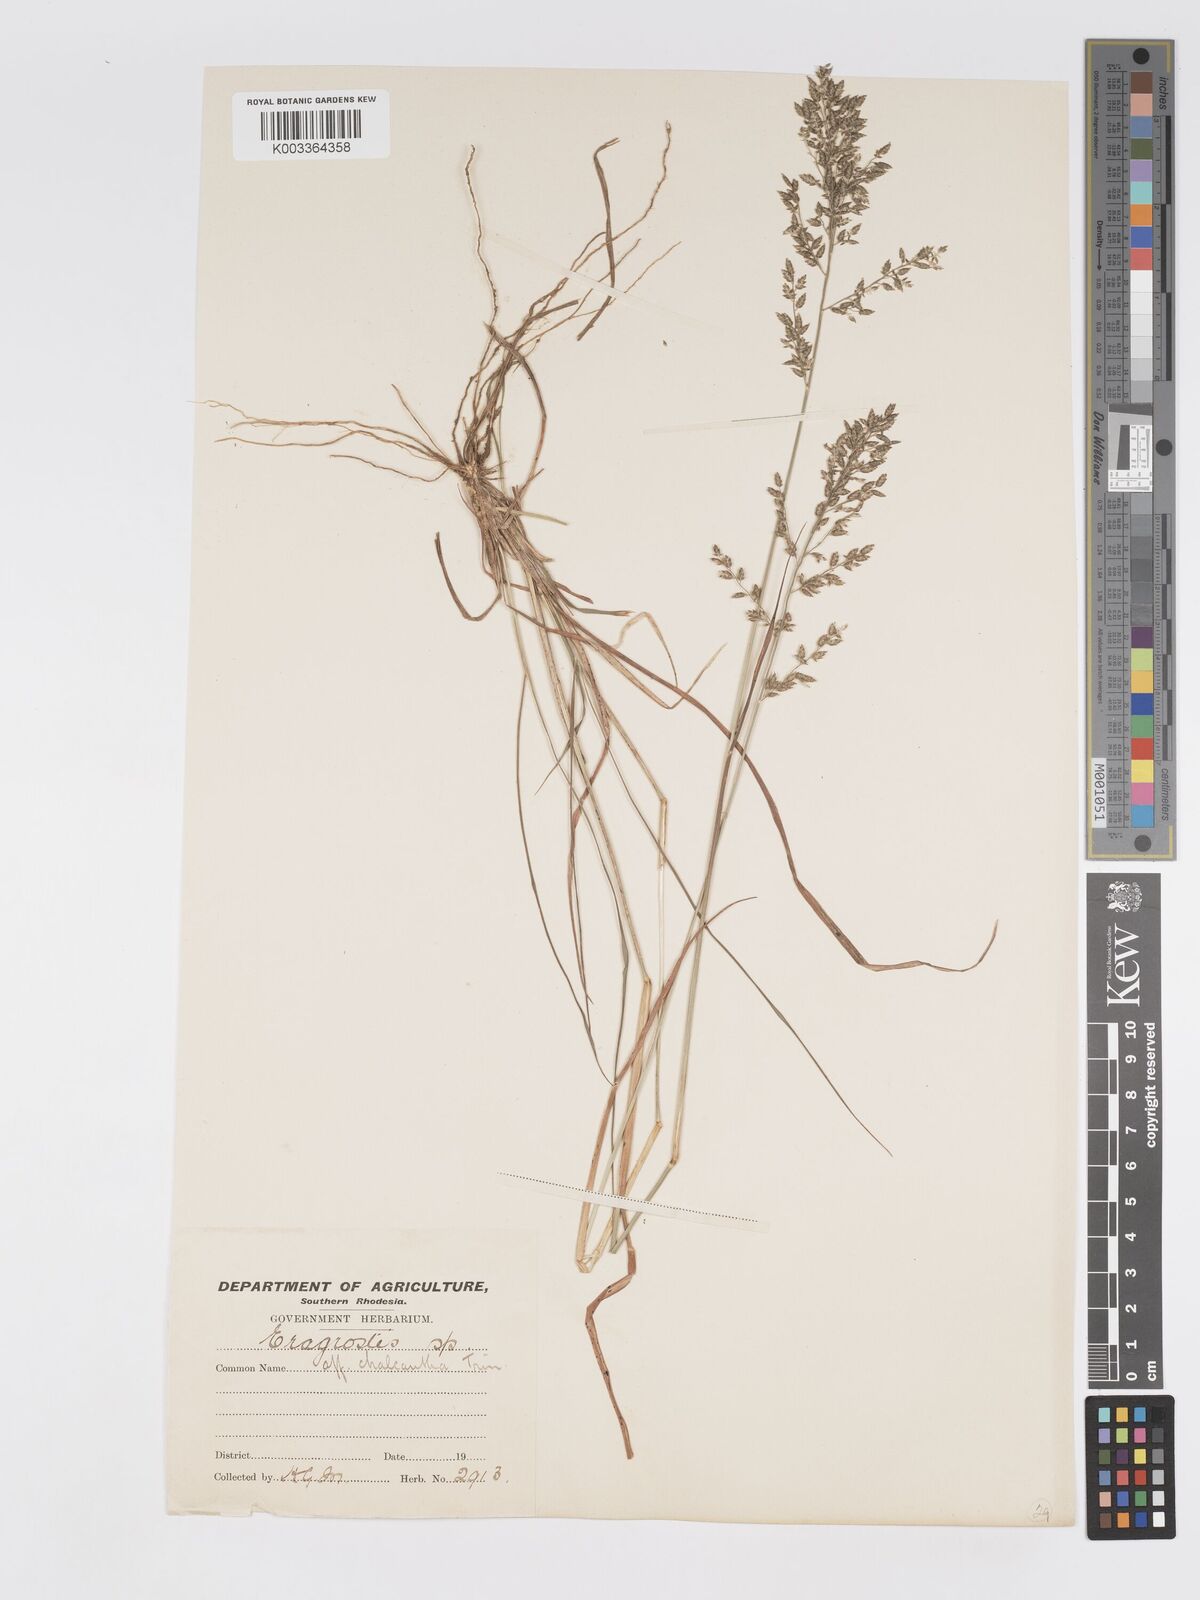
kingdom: Plantae
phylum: Tracheophyta
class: Liliopsida
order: Poales
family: Poaceae
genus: Eragrostis
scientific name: Eragrostis racemosa
